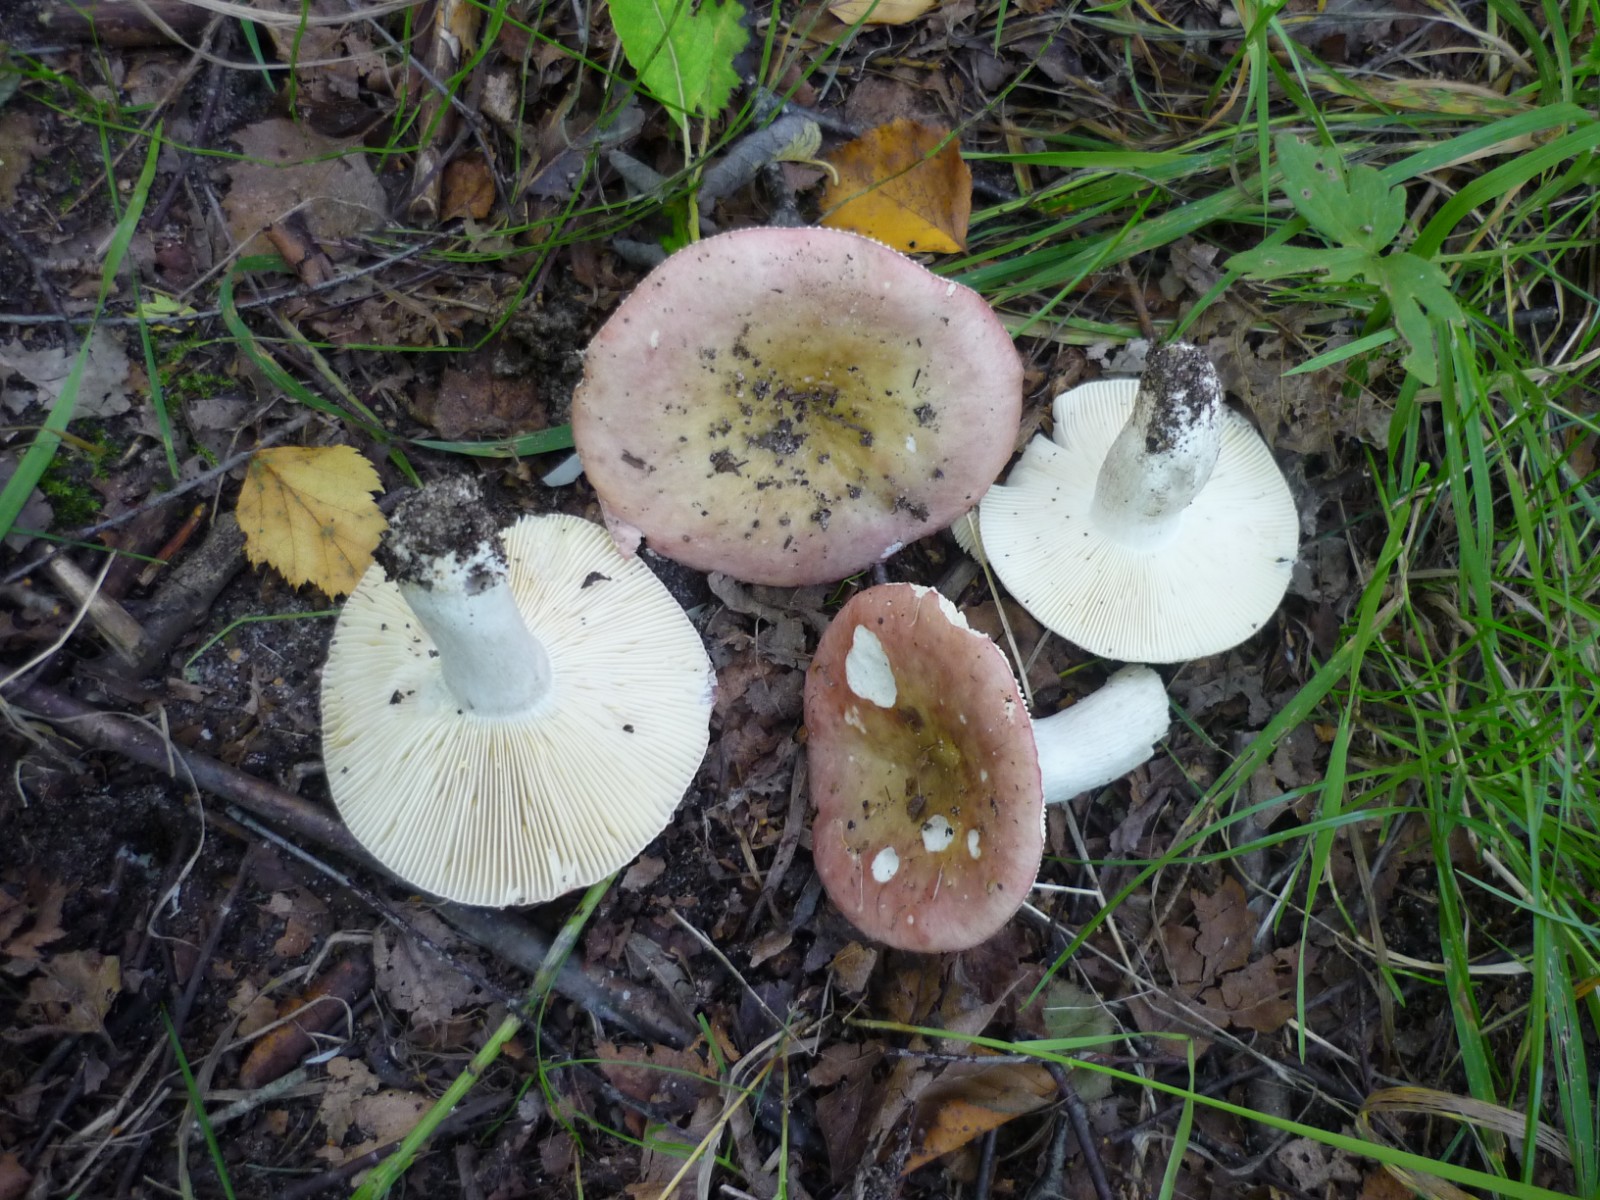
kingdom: Fungi
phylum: Basidiomycota
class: Agaricomycetes
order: Russulales
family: Russulaceae
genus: Russula
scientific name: Russula depallens
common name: falmende skørhat
